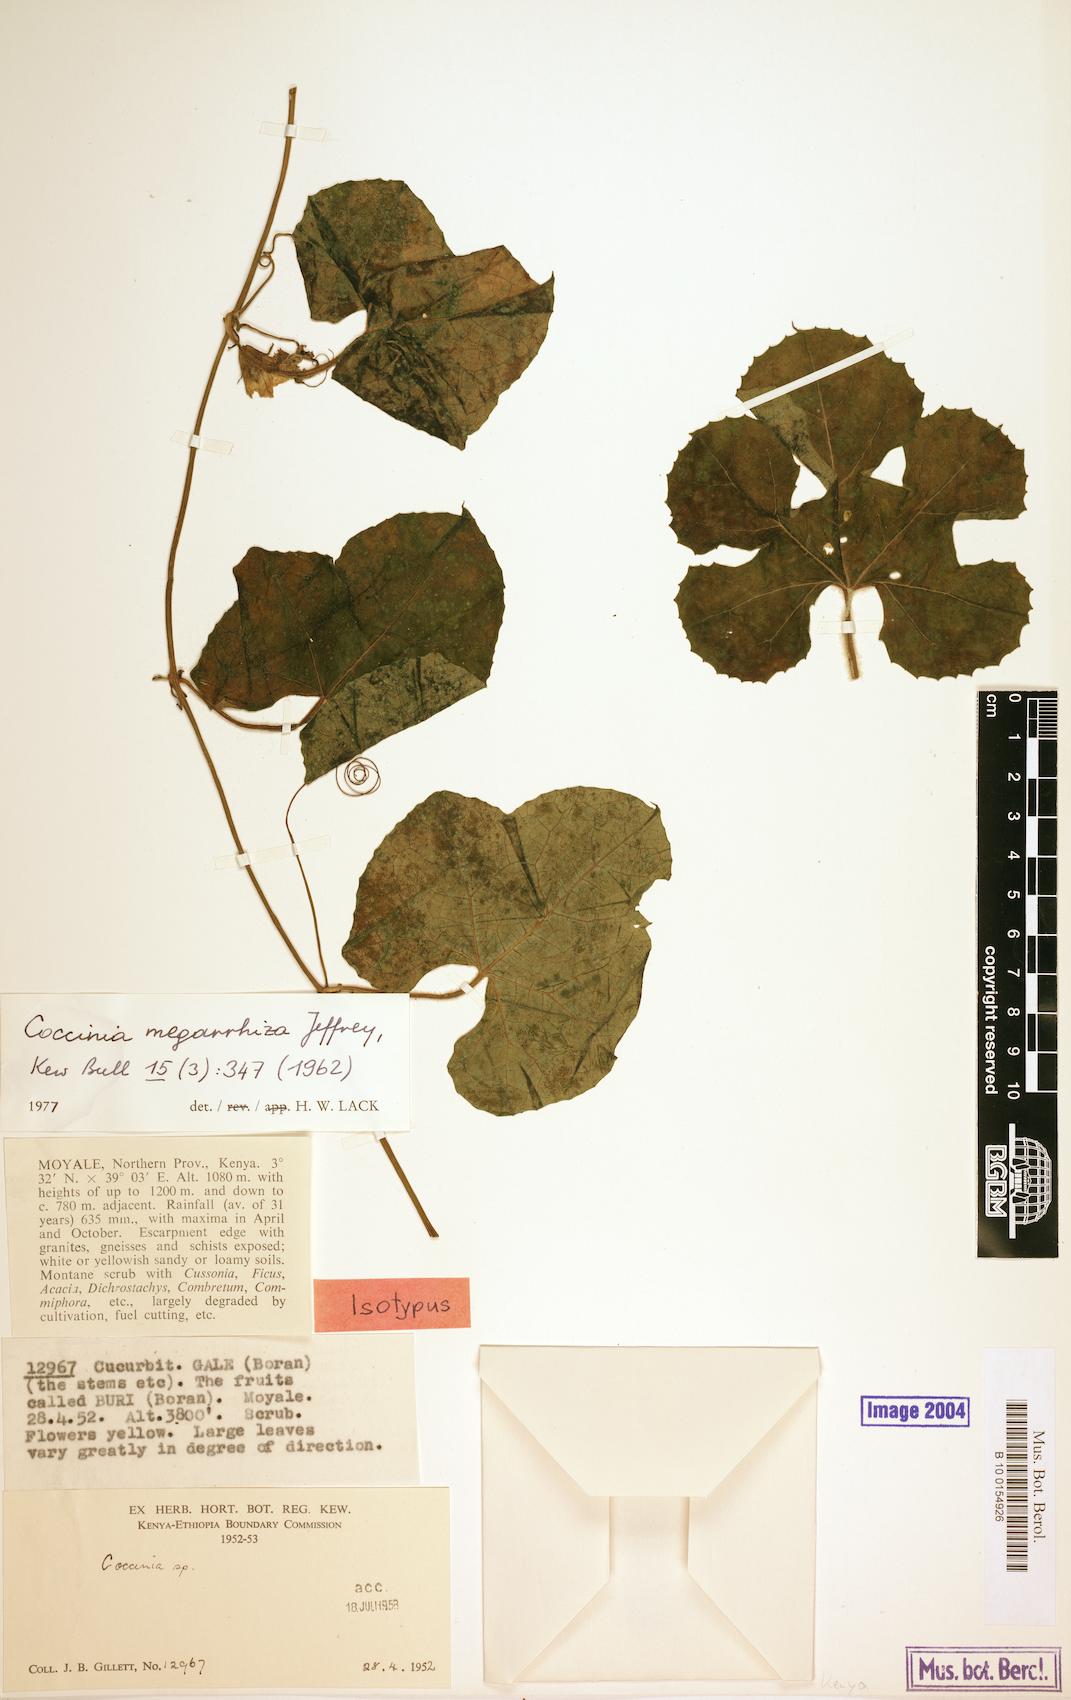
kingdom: Plantae
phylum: Tracheophyta
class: Magnoliopsida
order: Cucurbitales
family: Cucurbitaceae
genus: Coccinia
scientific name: Coccinia megarrhiza
